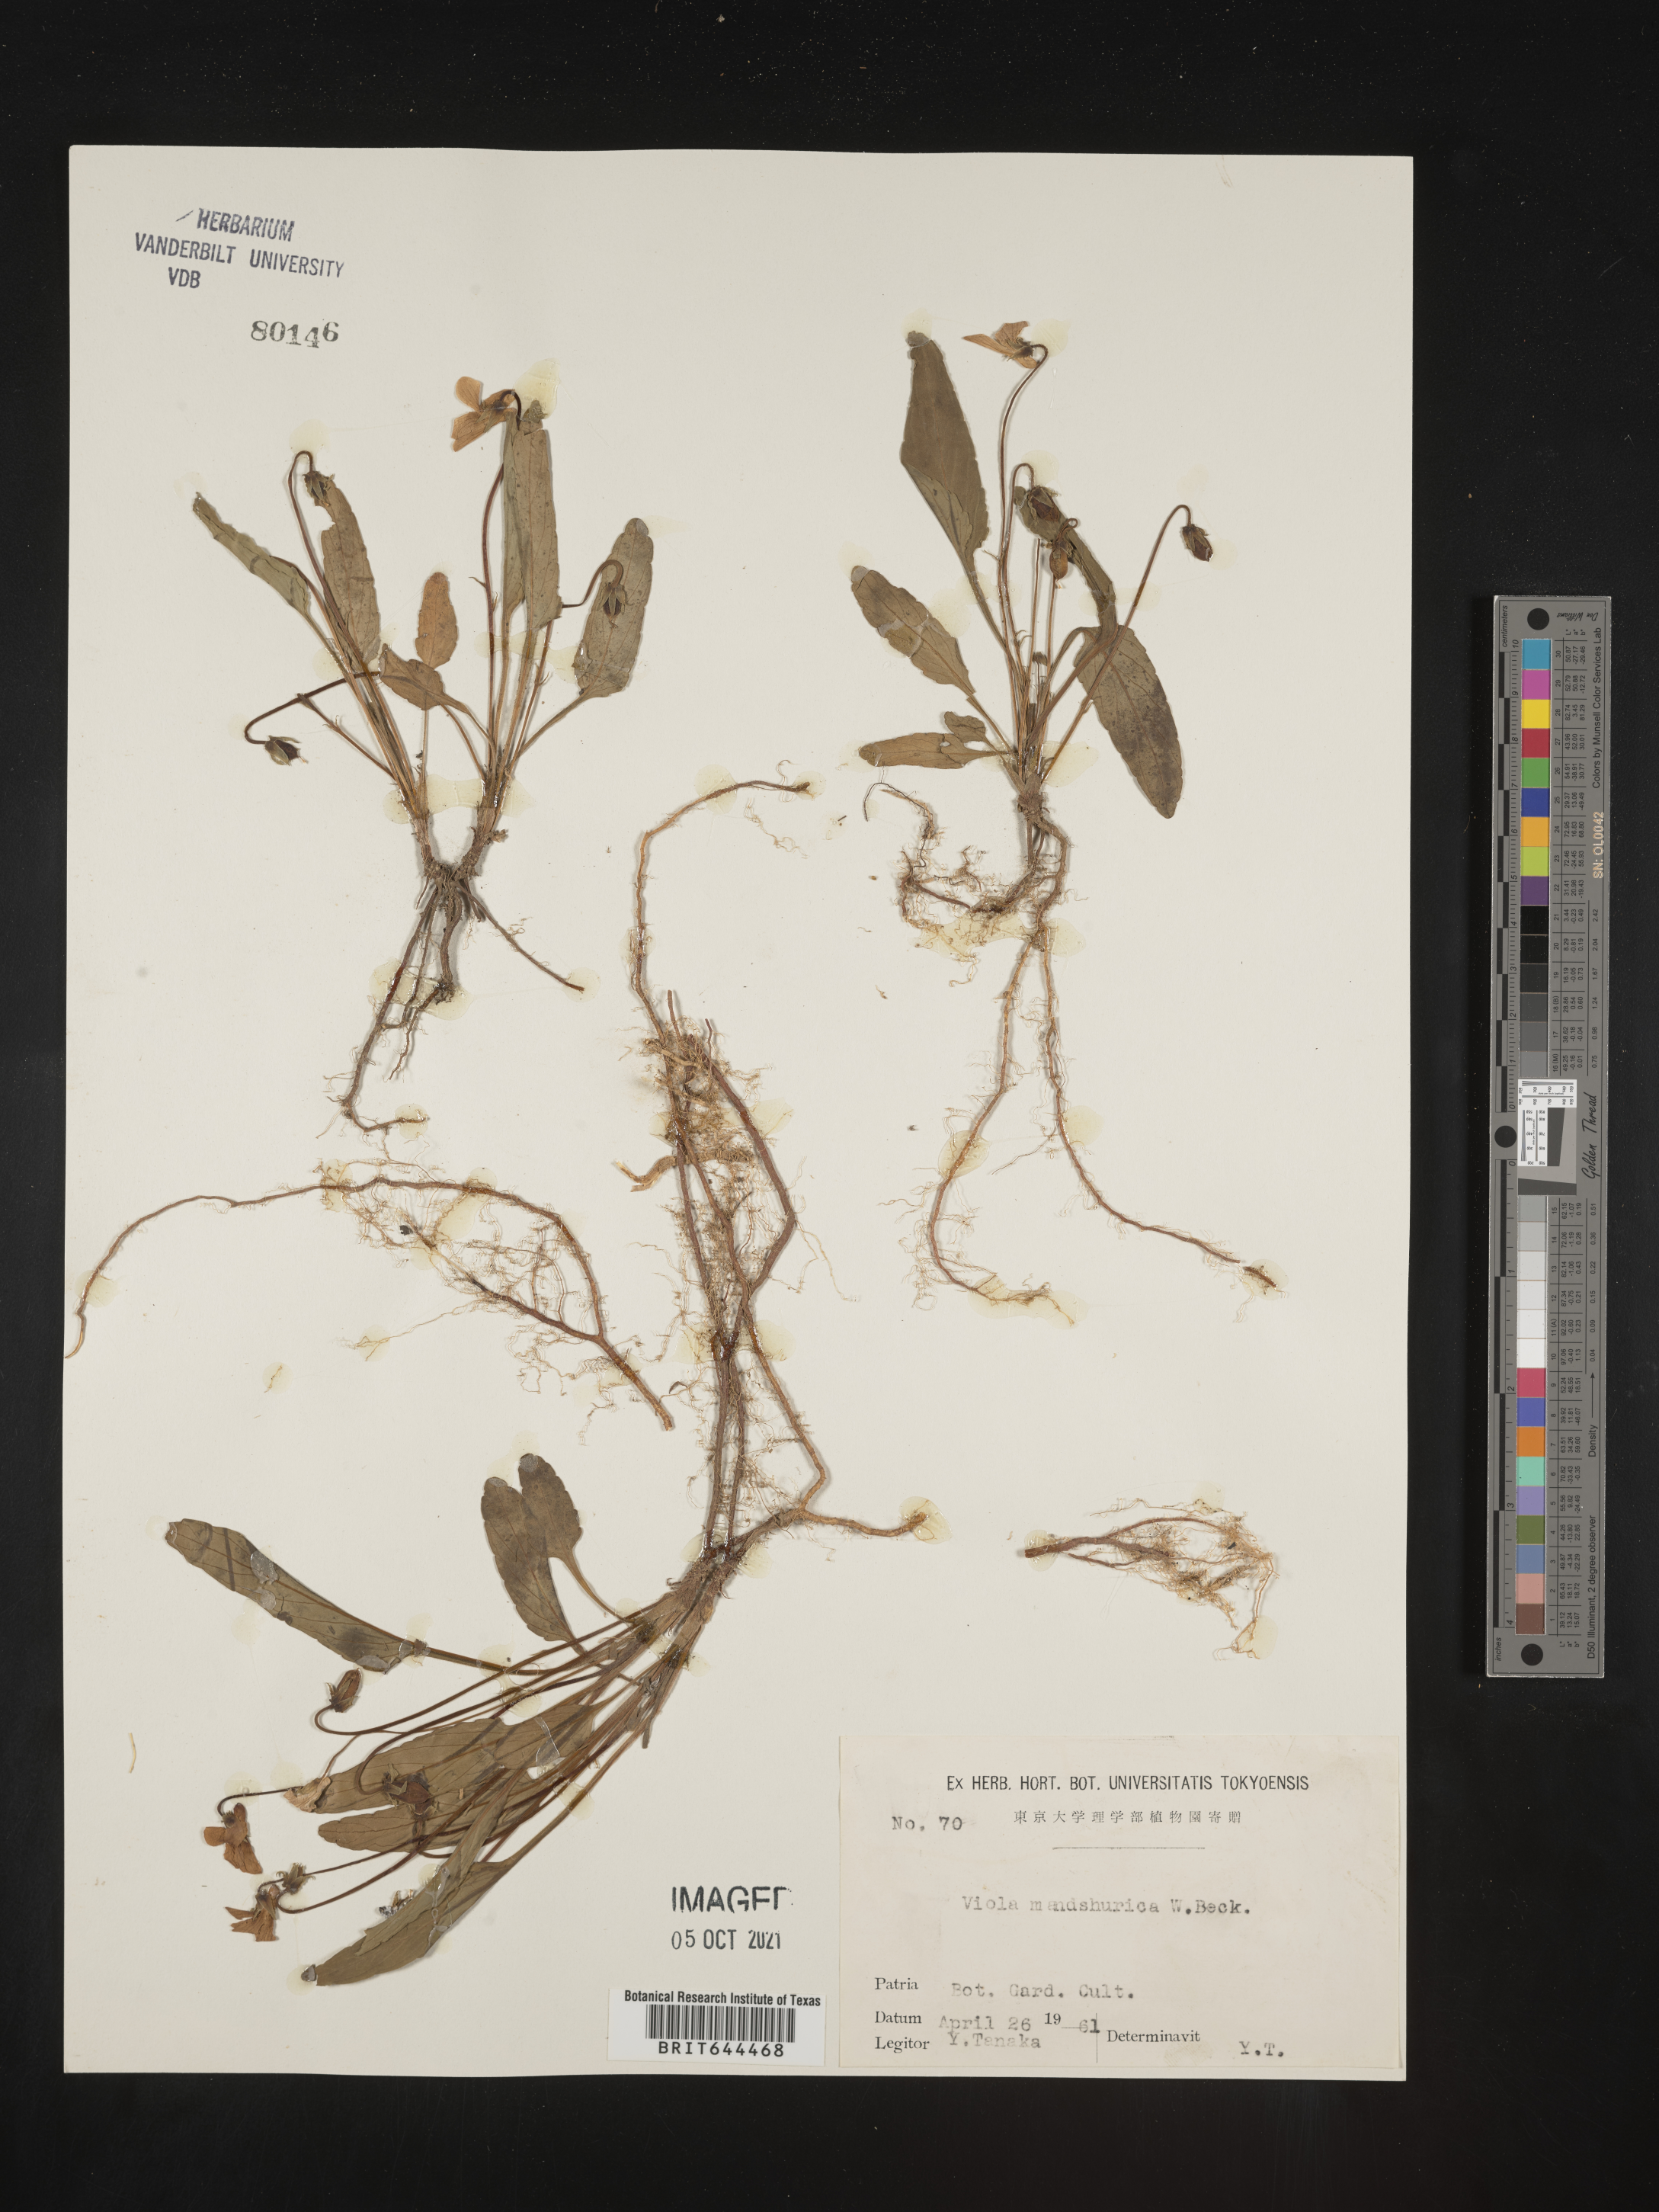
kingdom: Plantae
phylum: Tracheophyta
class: Magnoliopsida
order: Malpighiales
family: Violaceae
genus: Viola
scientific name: Viola
